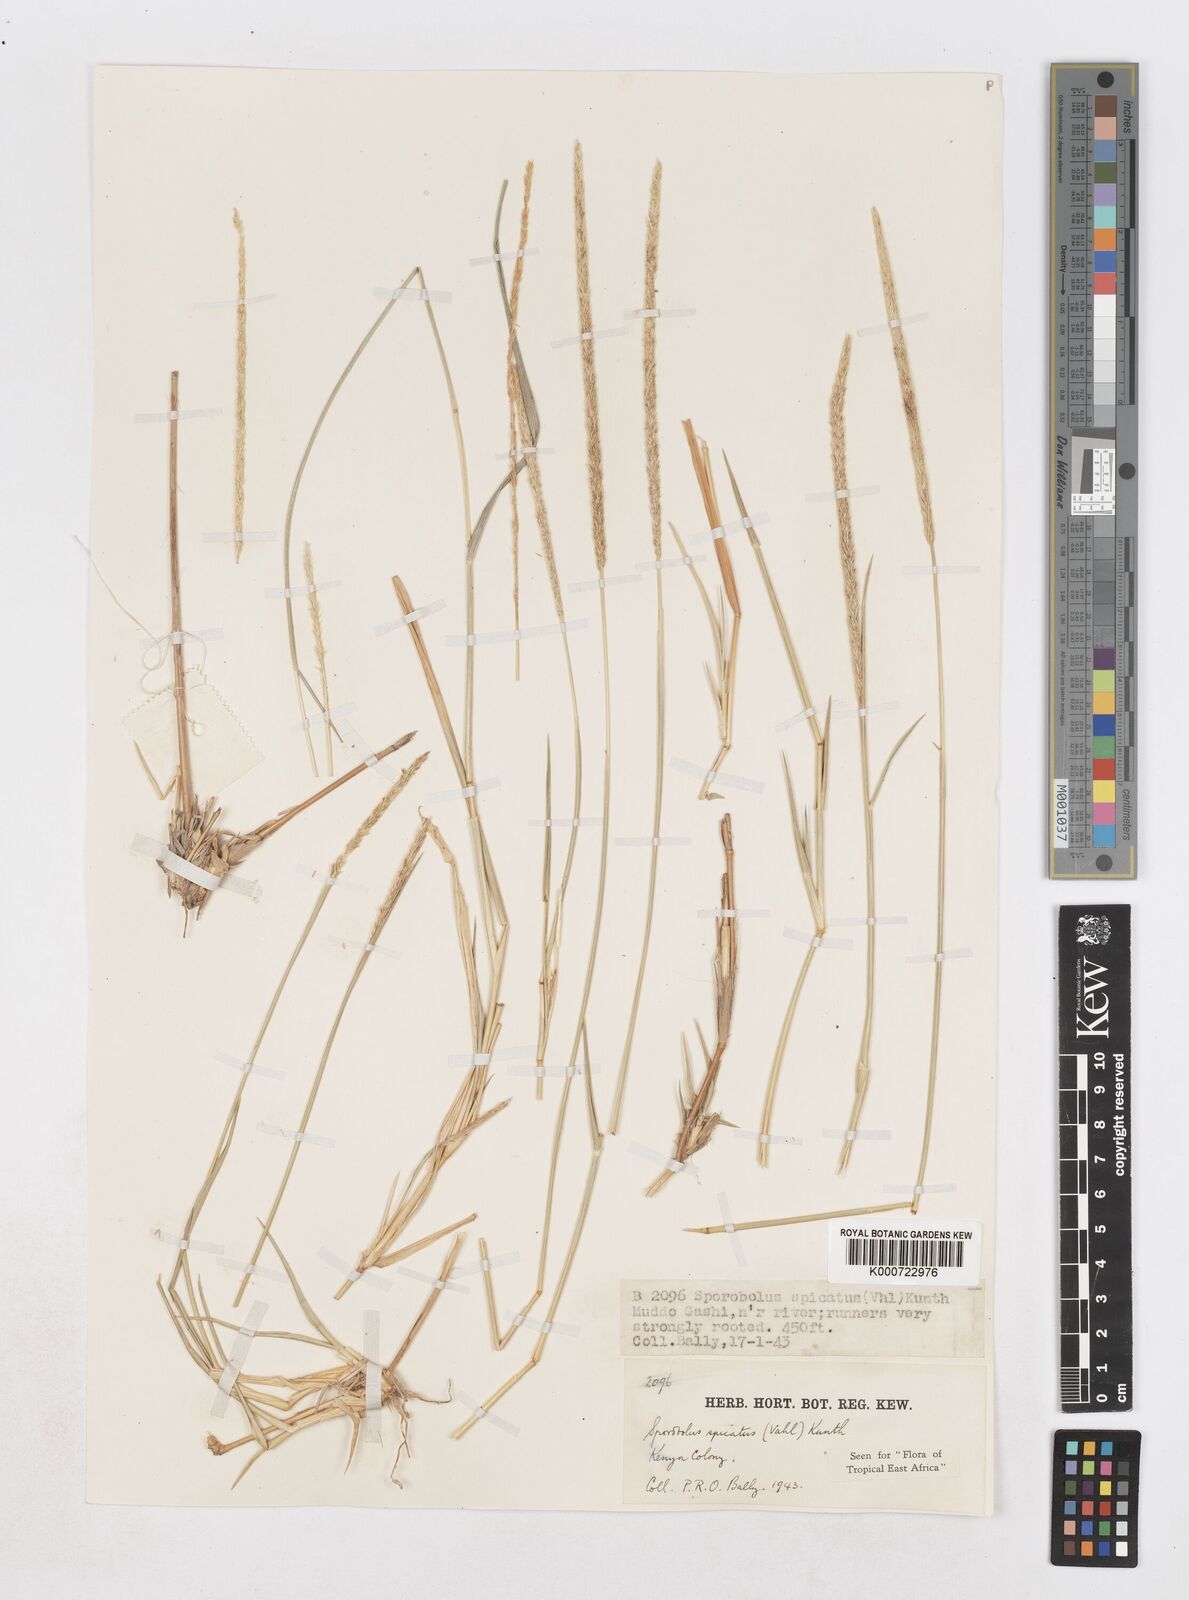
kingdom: Plantae
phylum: Tracheophyta
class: Liliopsida
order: Poales
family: Poaceae
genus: Sporobolus
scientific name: Sporobolus spicatus
